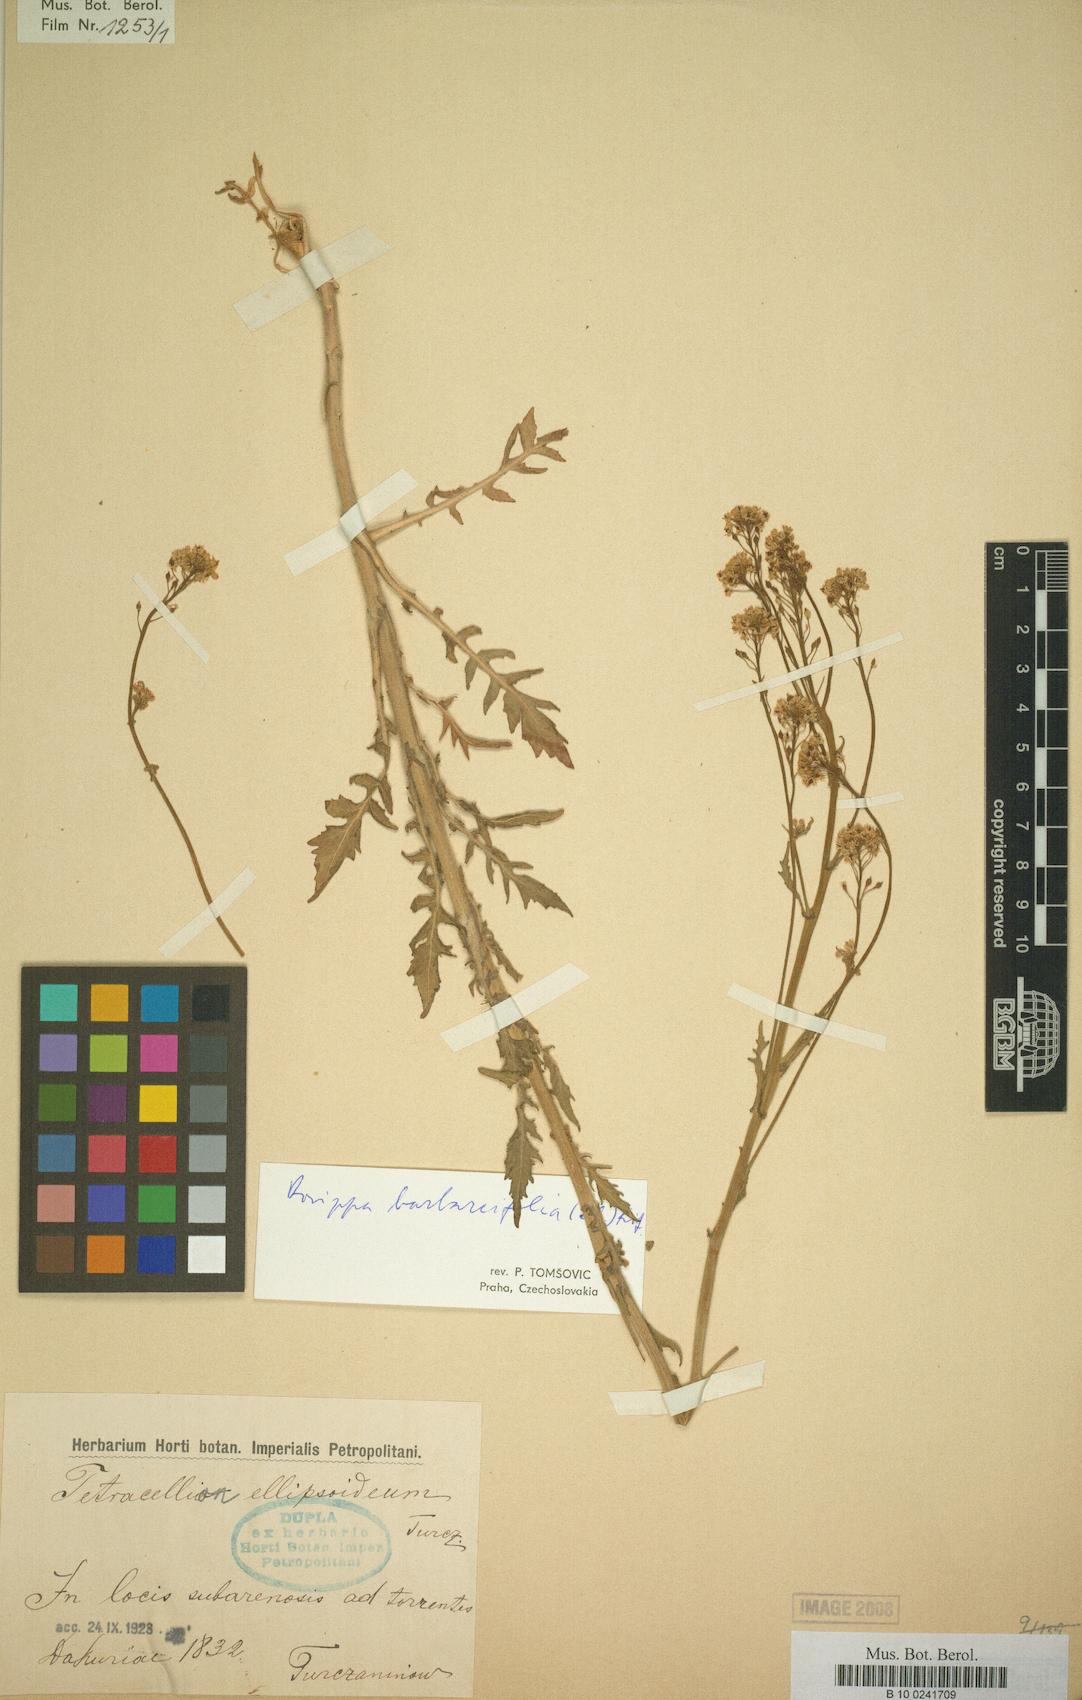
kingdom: Plantae
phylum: Tracheophyta
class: Magnoliopsida
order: Brassicales
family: Brassicaceae
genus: Rorippa
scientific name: Rorippa barbareifolia
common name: Hoary yellowcress
